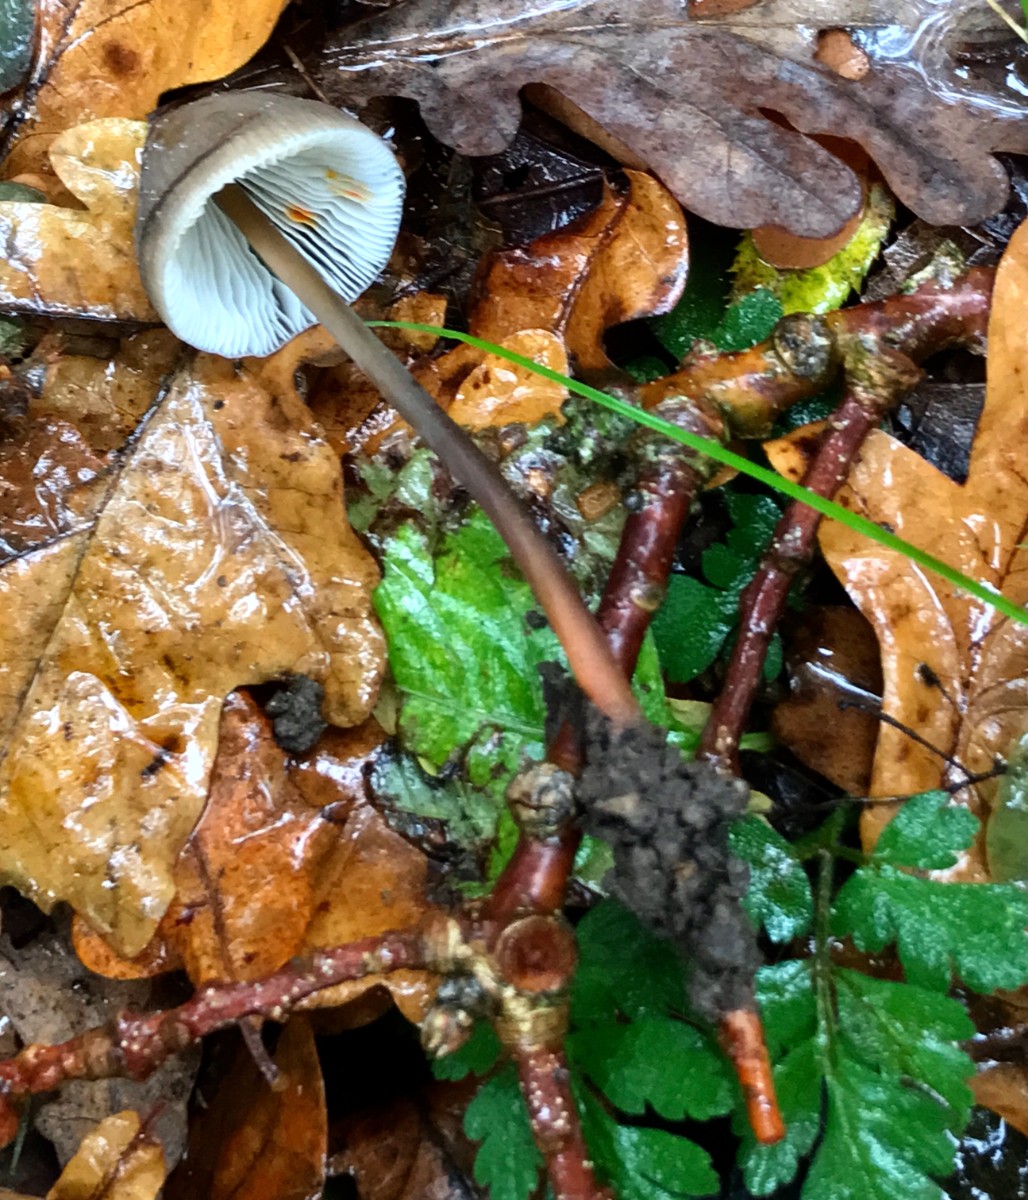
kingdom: Fungi
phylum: Basidiomycota
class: Agaricomycetes
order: Agaricales
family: Mycenaceae
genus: Mycena
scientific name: Mycena haematopus
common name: blødende huesvamp
